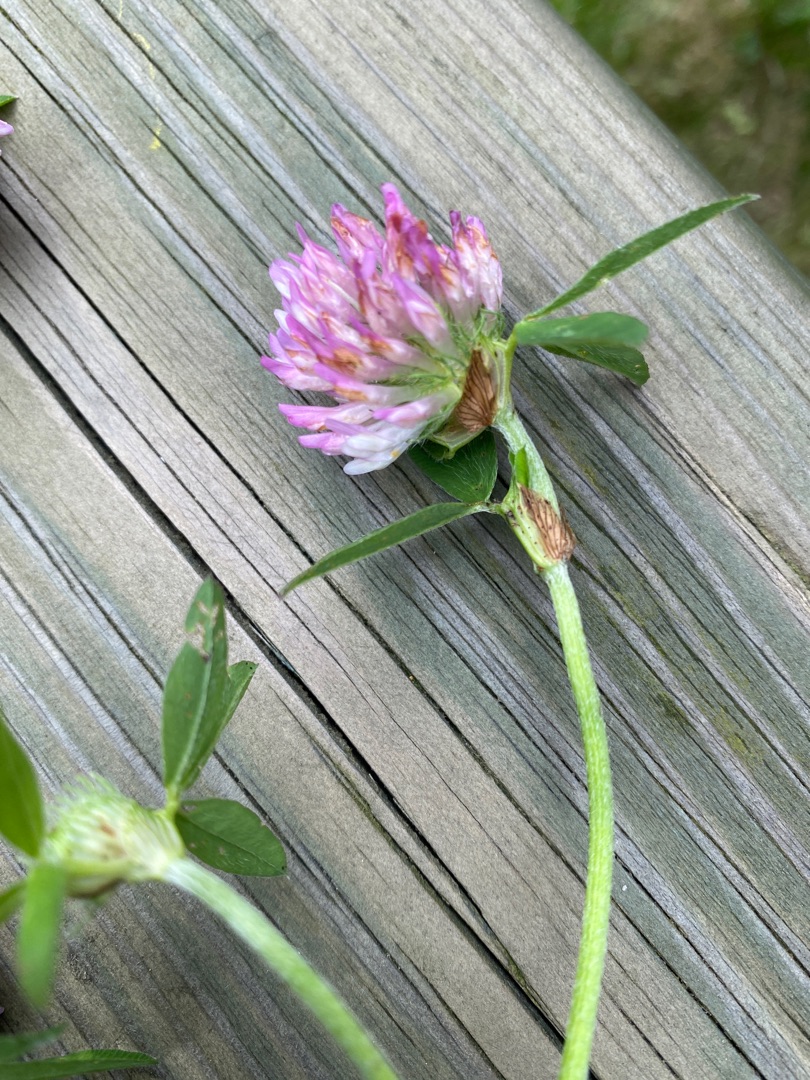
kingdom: Plantae
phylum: Tracheophyta
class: Magnoliopsida
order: Fabales
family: Fabaceae
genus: Trifolium
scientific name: Trifolium pratense
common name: Rød-kløver
